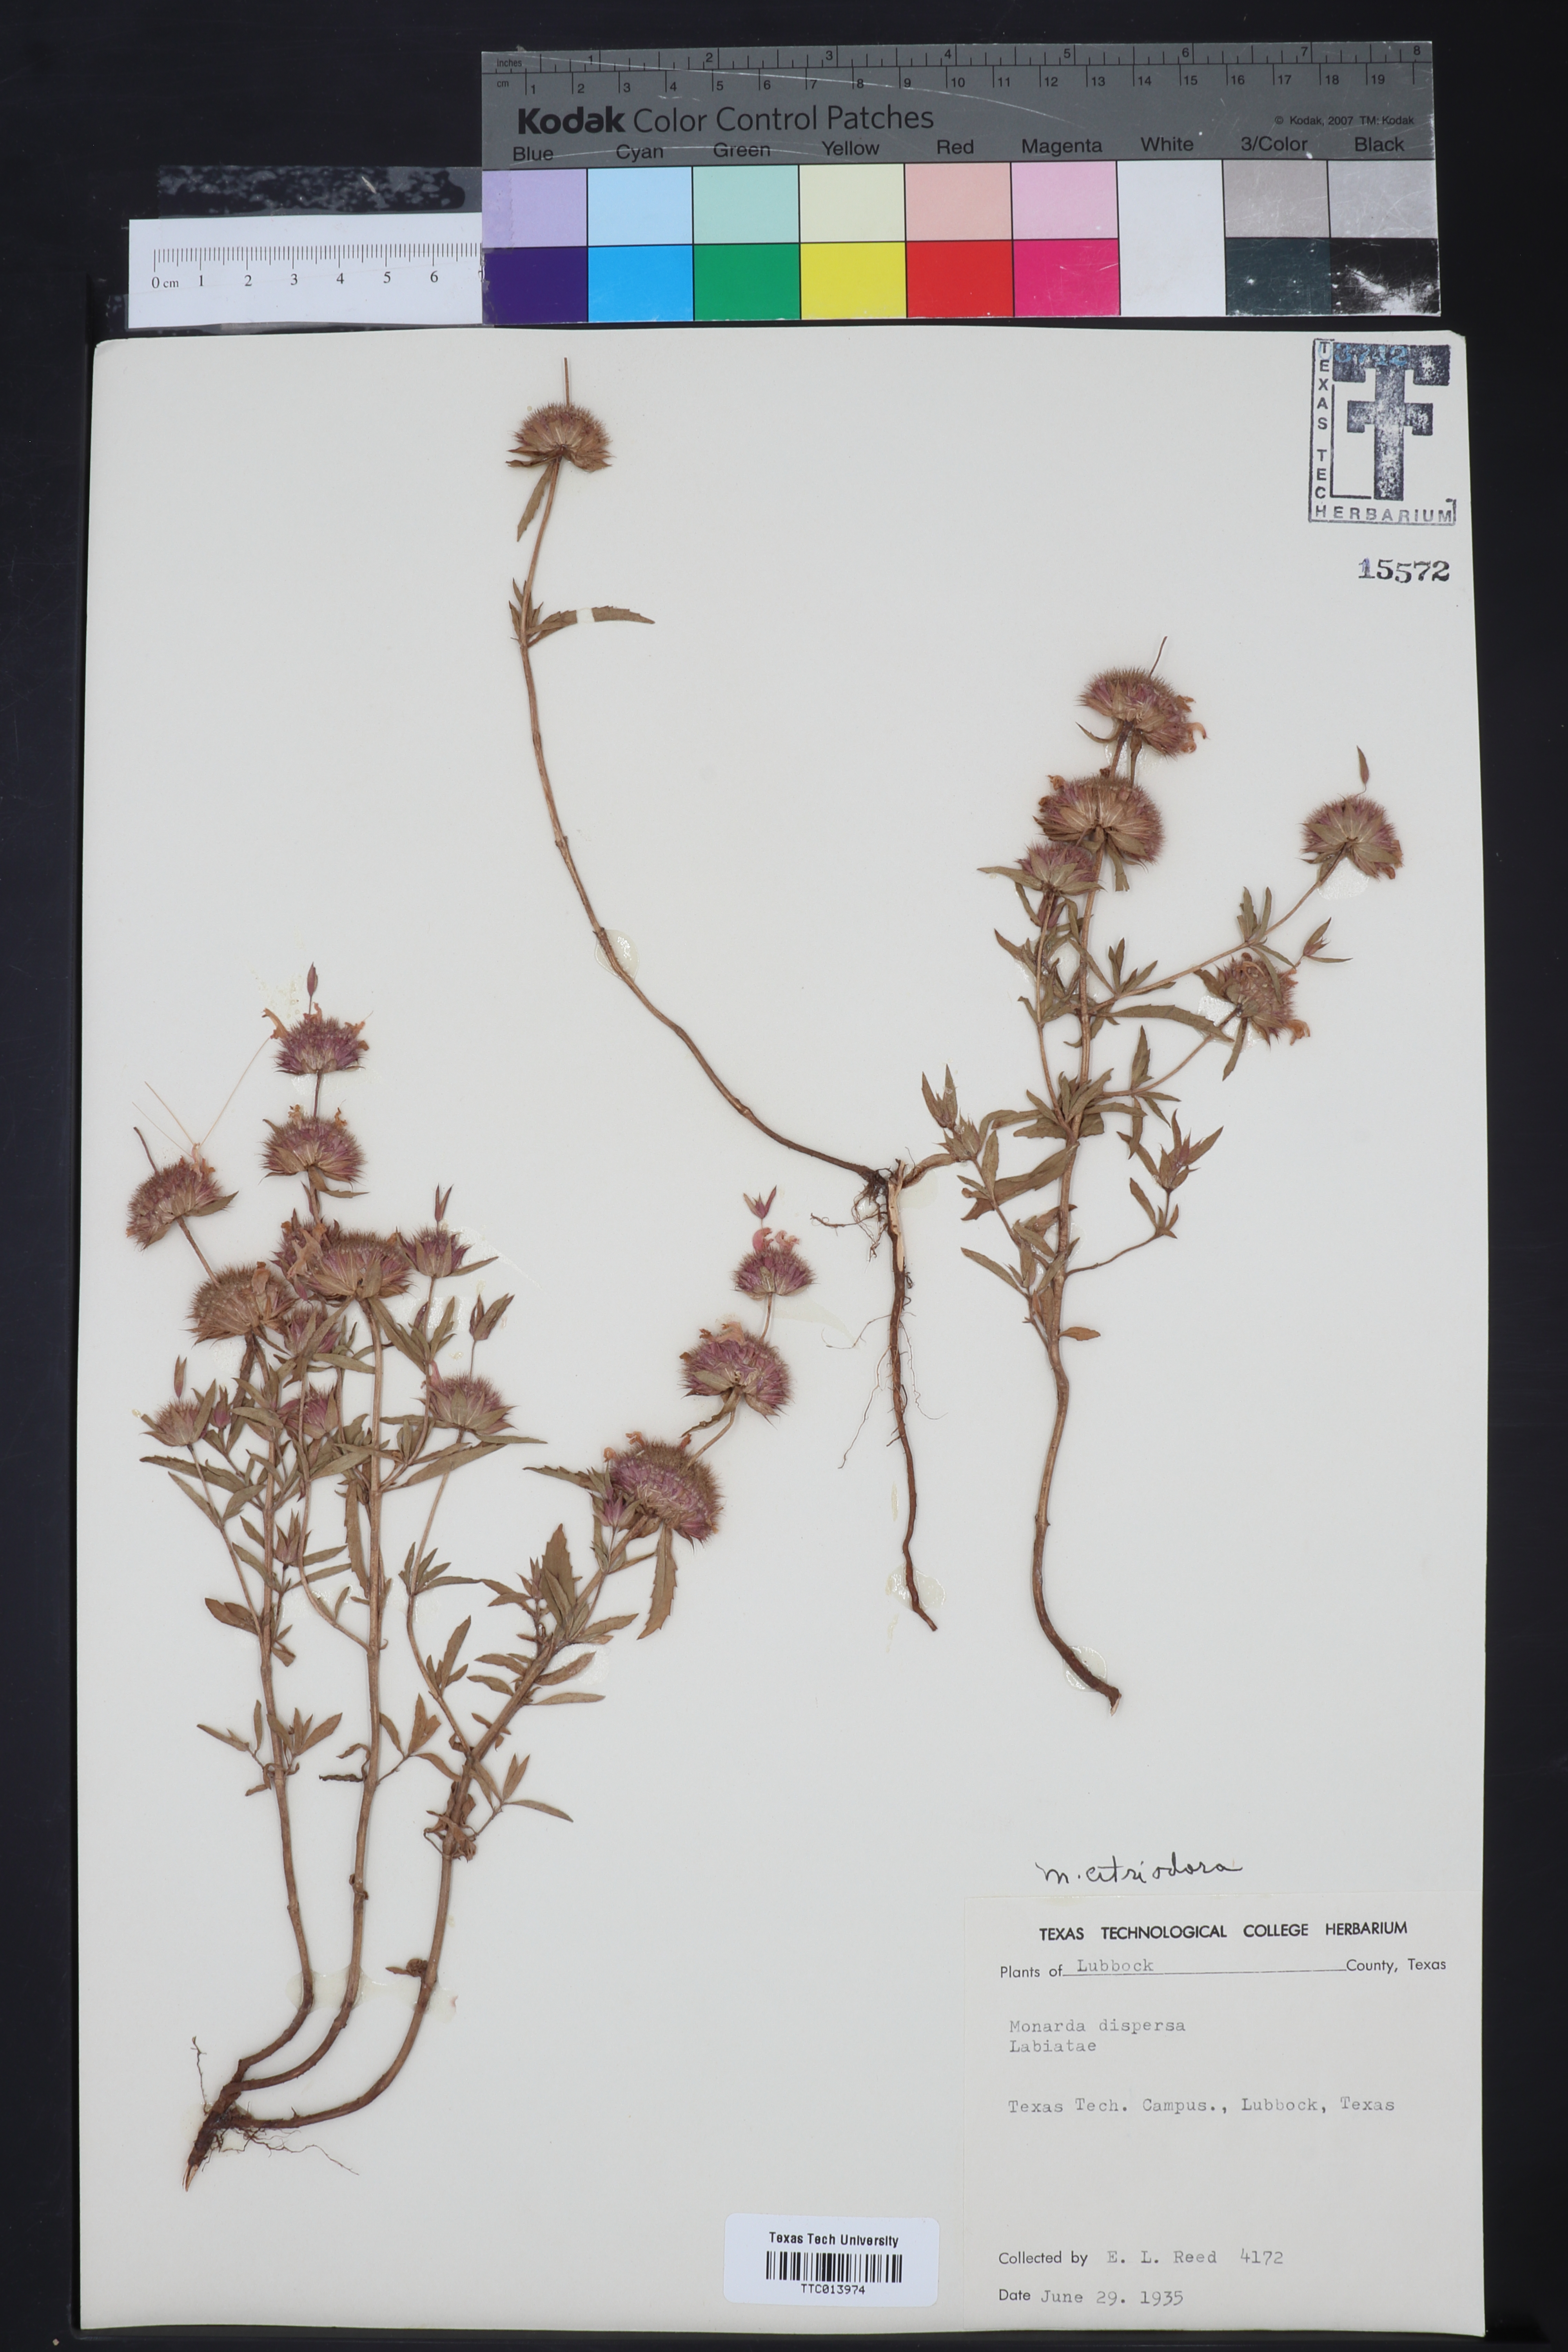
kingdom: Plantae
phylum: Tracheophyta
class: Magnoliopsida
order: Lamiales
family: Lamiaceae
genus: Monarda
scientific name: Monarda citriodora
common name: Lemon beebalm
